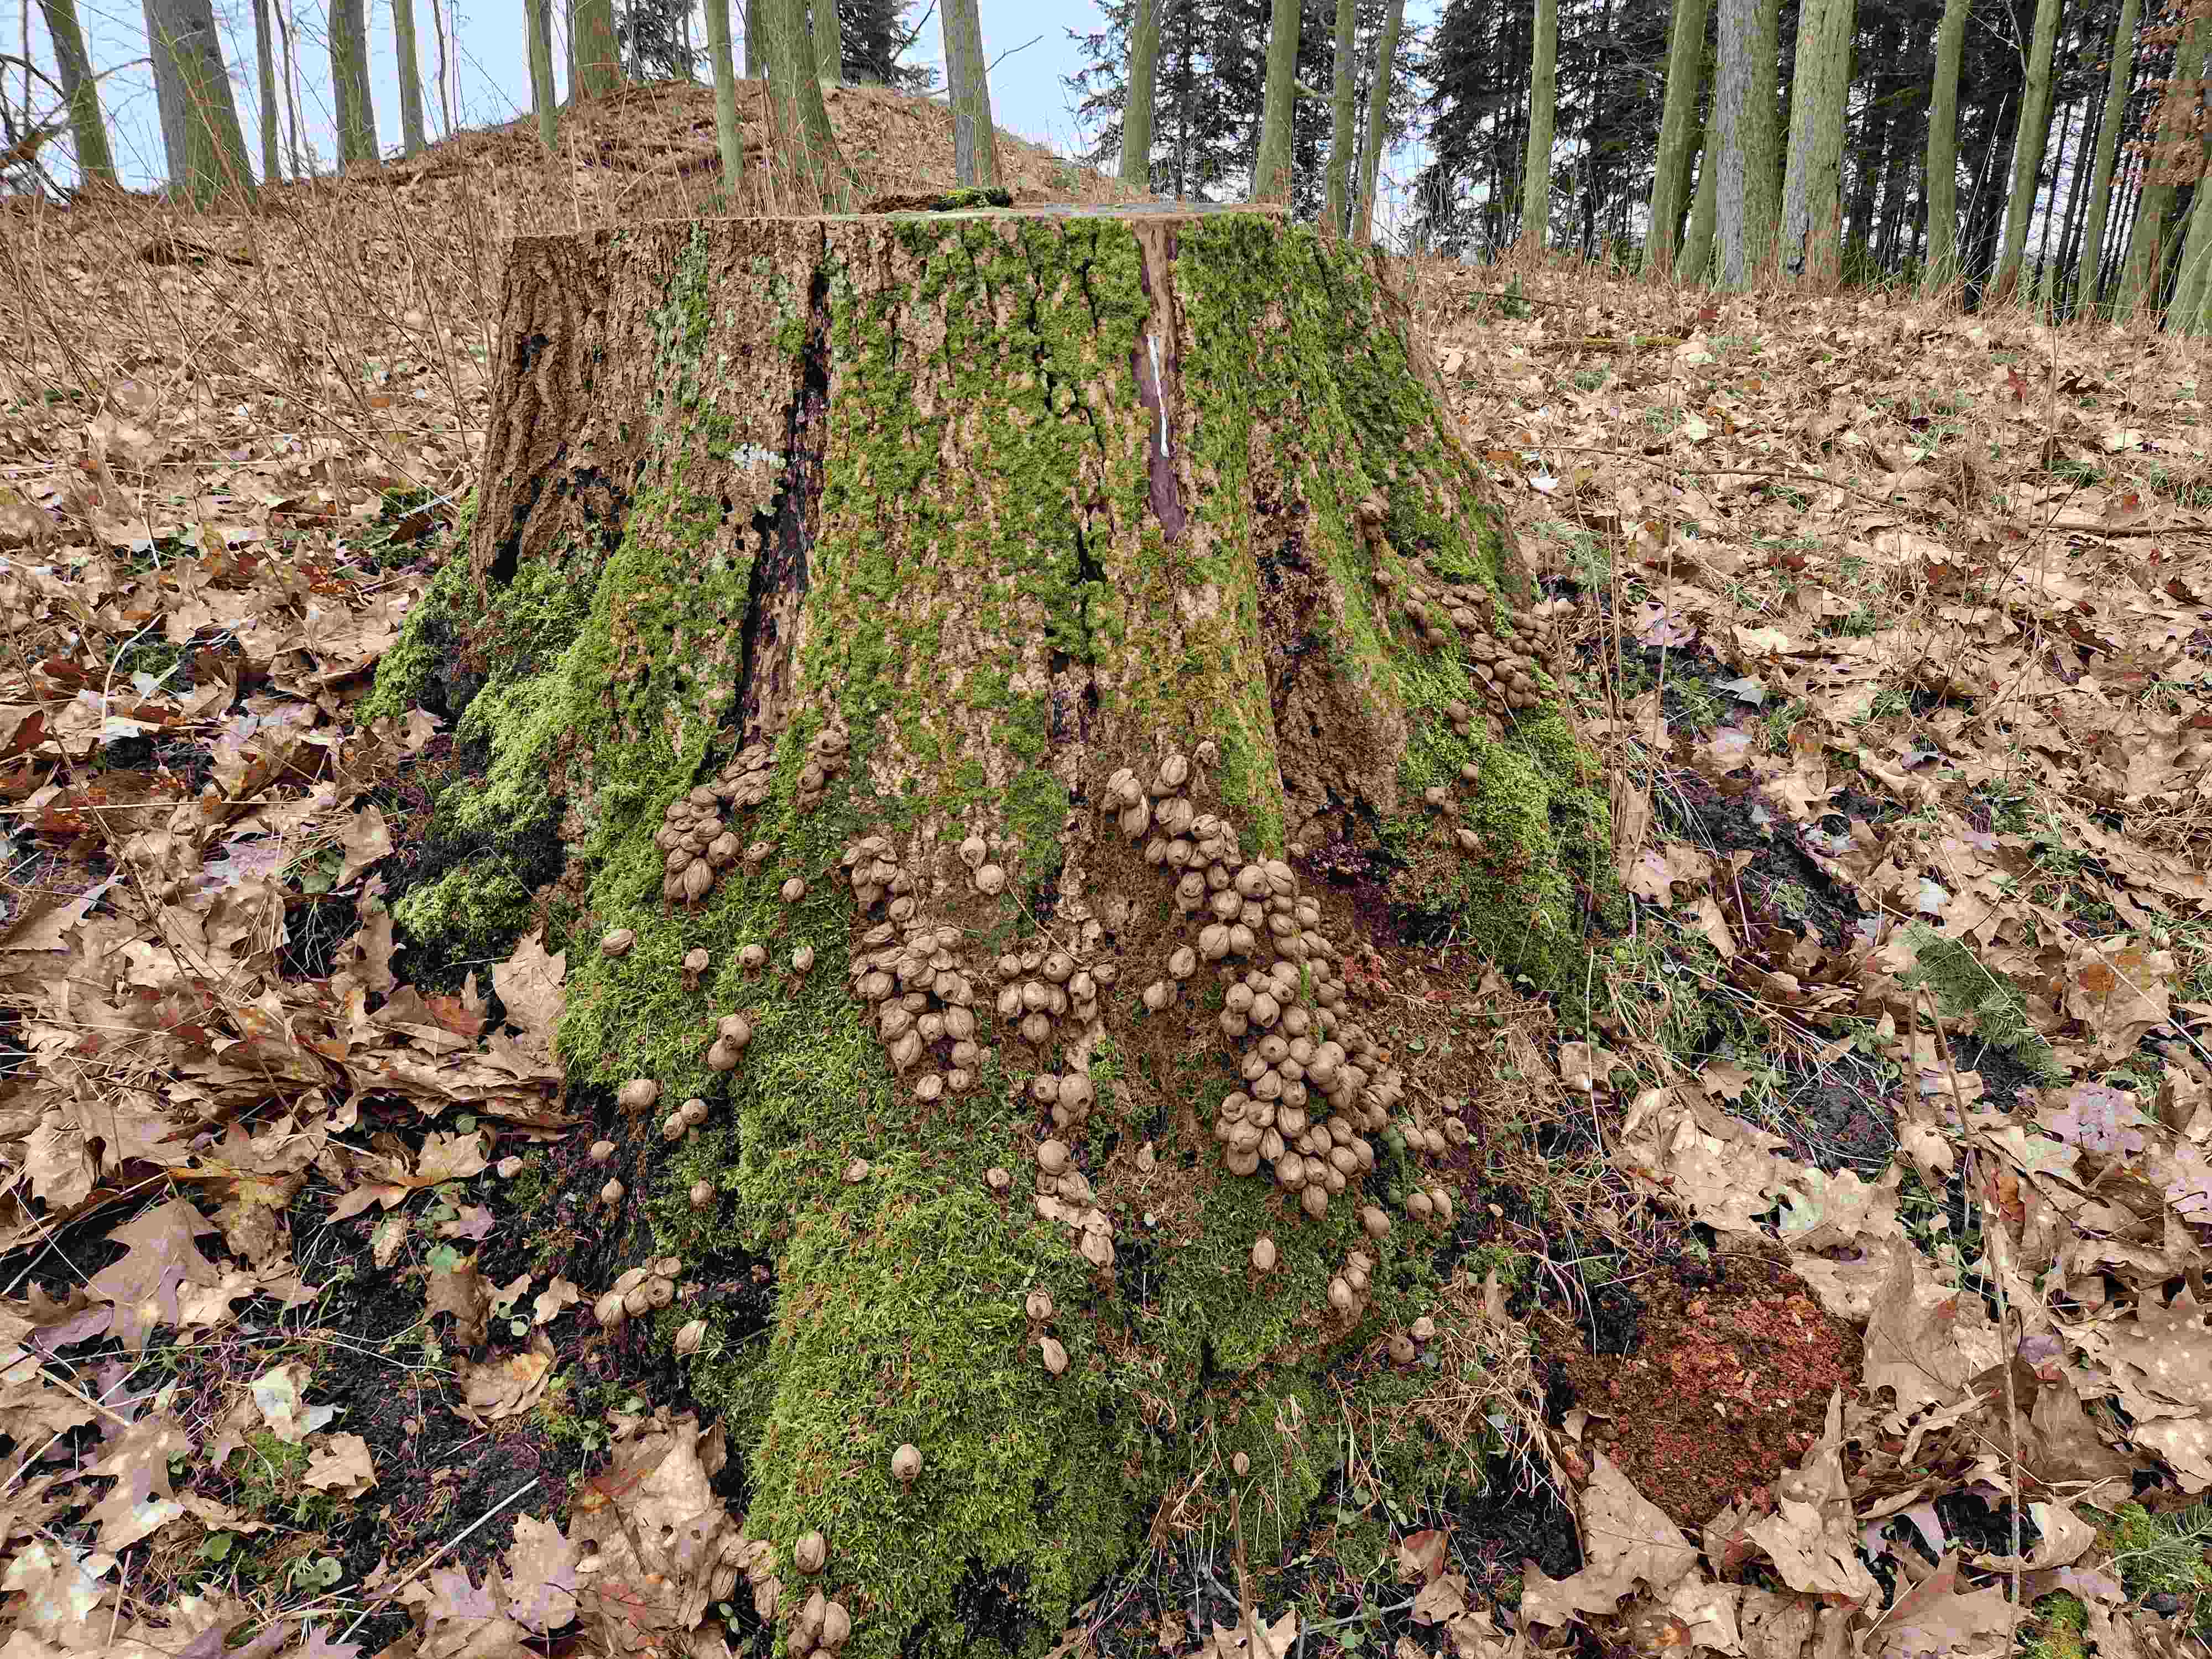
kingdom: Fungi
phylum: Basidiomycota
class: Agaricomycetes
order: Agaricales
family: Lycoperdaceae
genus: Apioperdon
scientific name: Apioperdon pyriforme
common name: pære-støvbold
